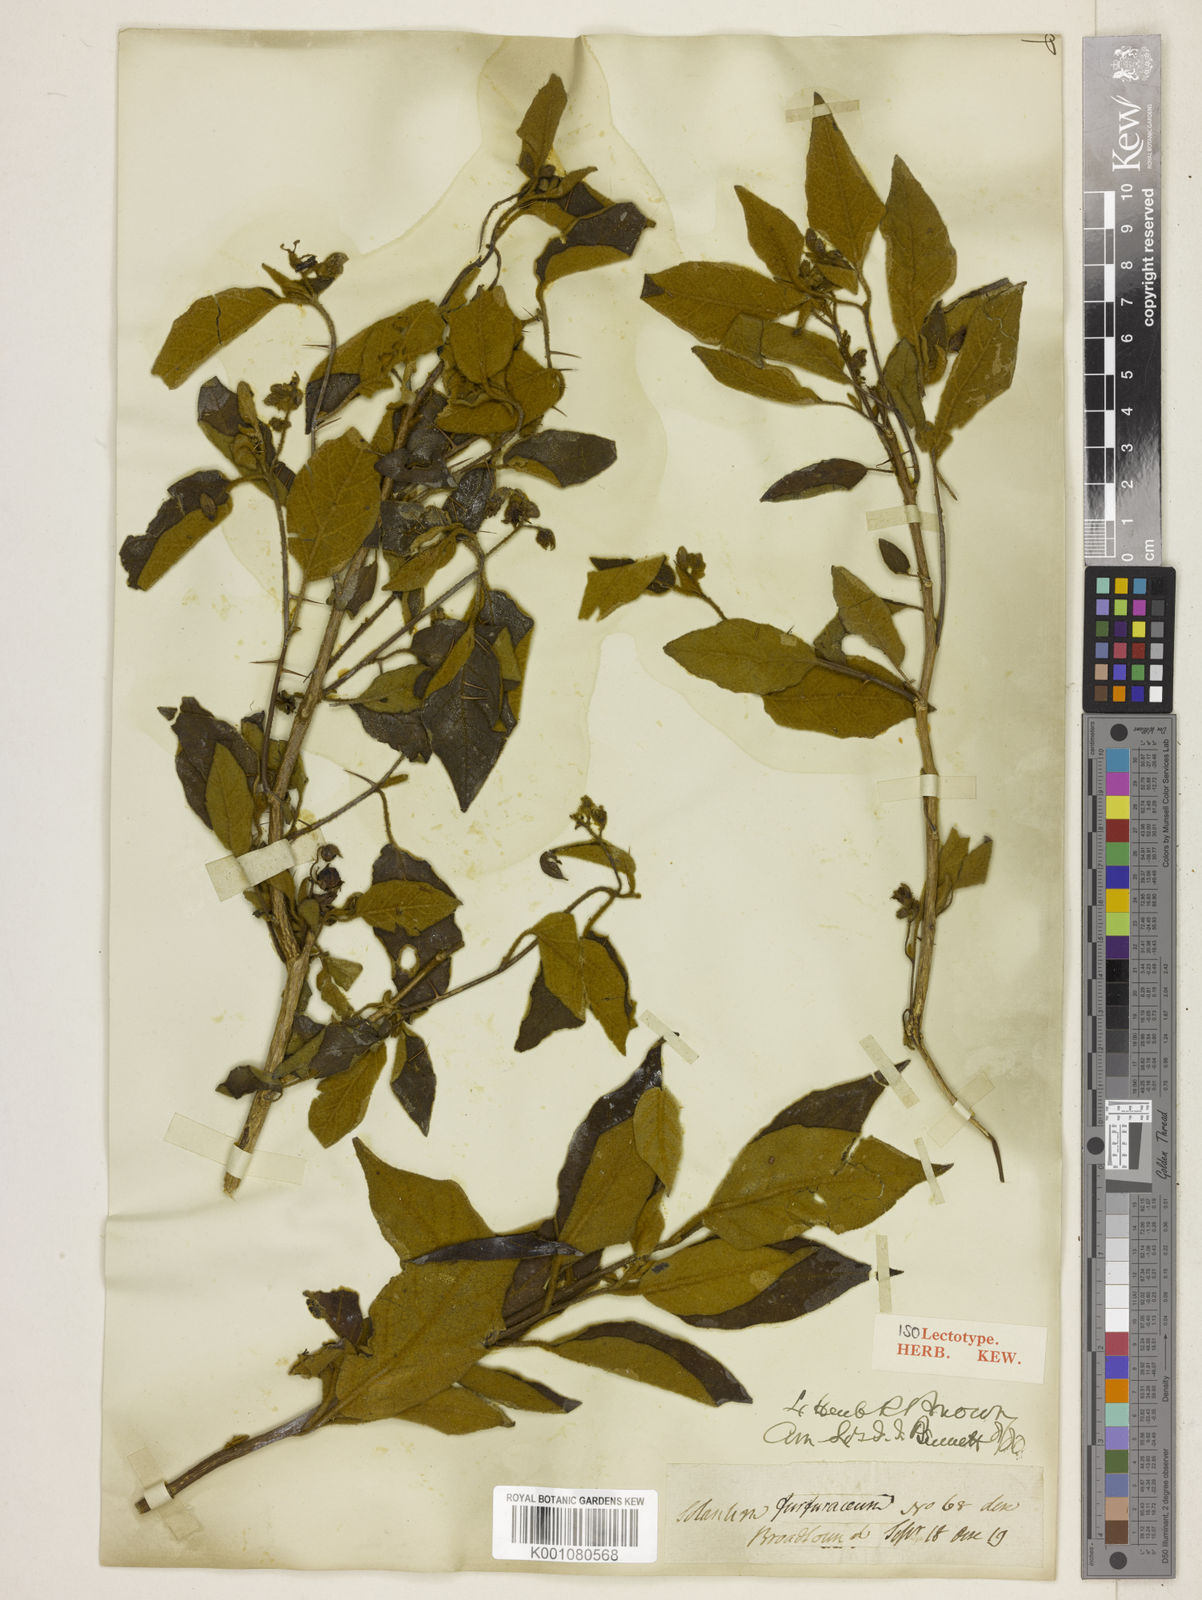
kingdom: Plantae
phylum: Tracheophyta
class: Magnoliopsida
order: Solanales
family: Solanaceae
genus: Solanum
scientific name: Solanum montanum
